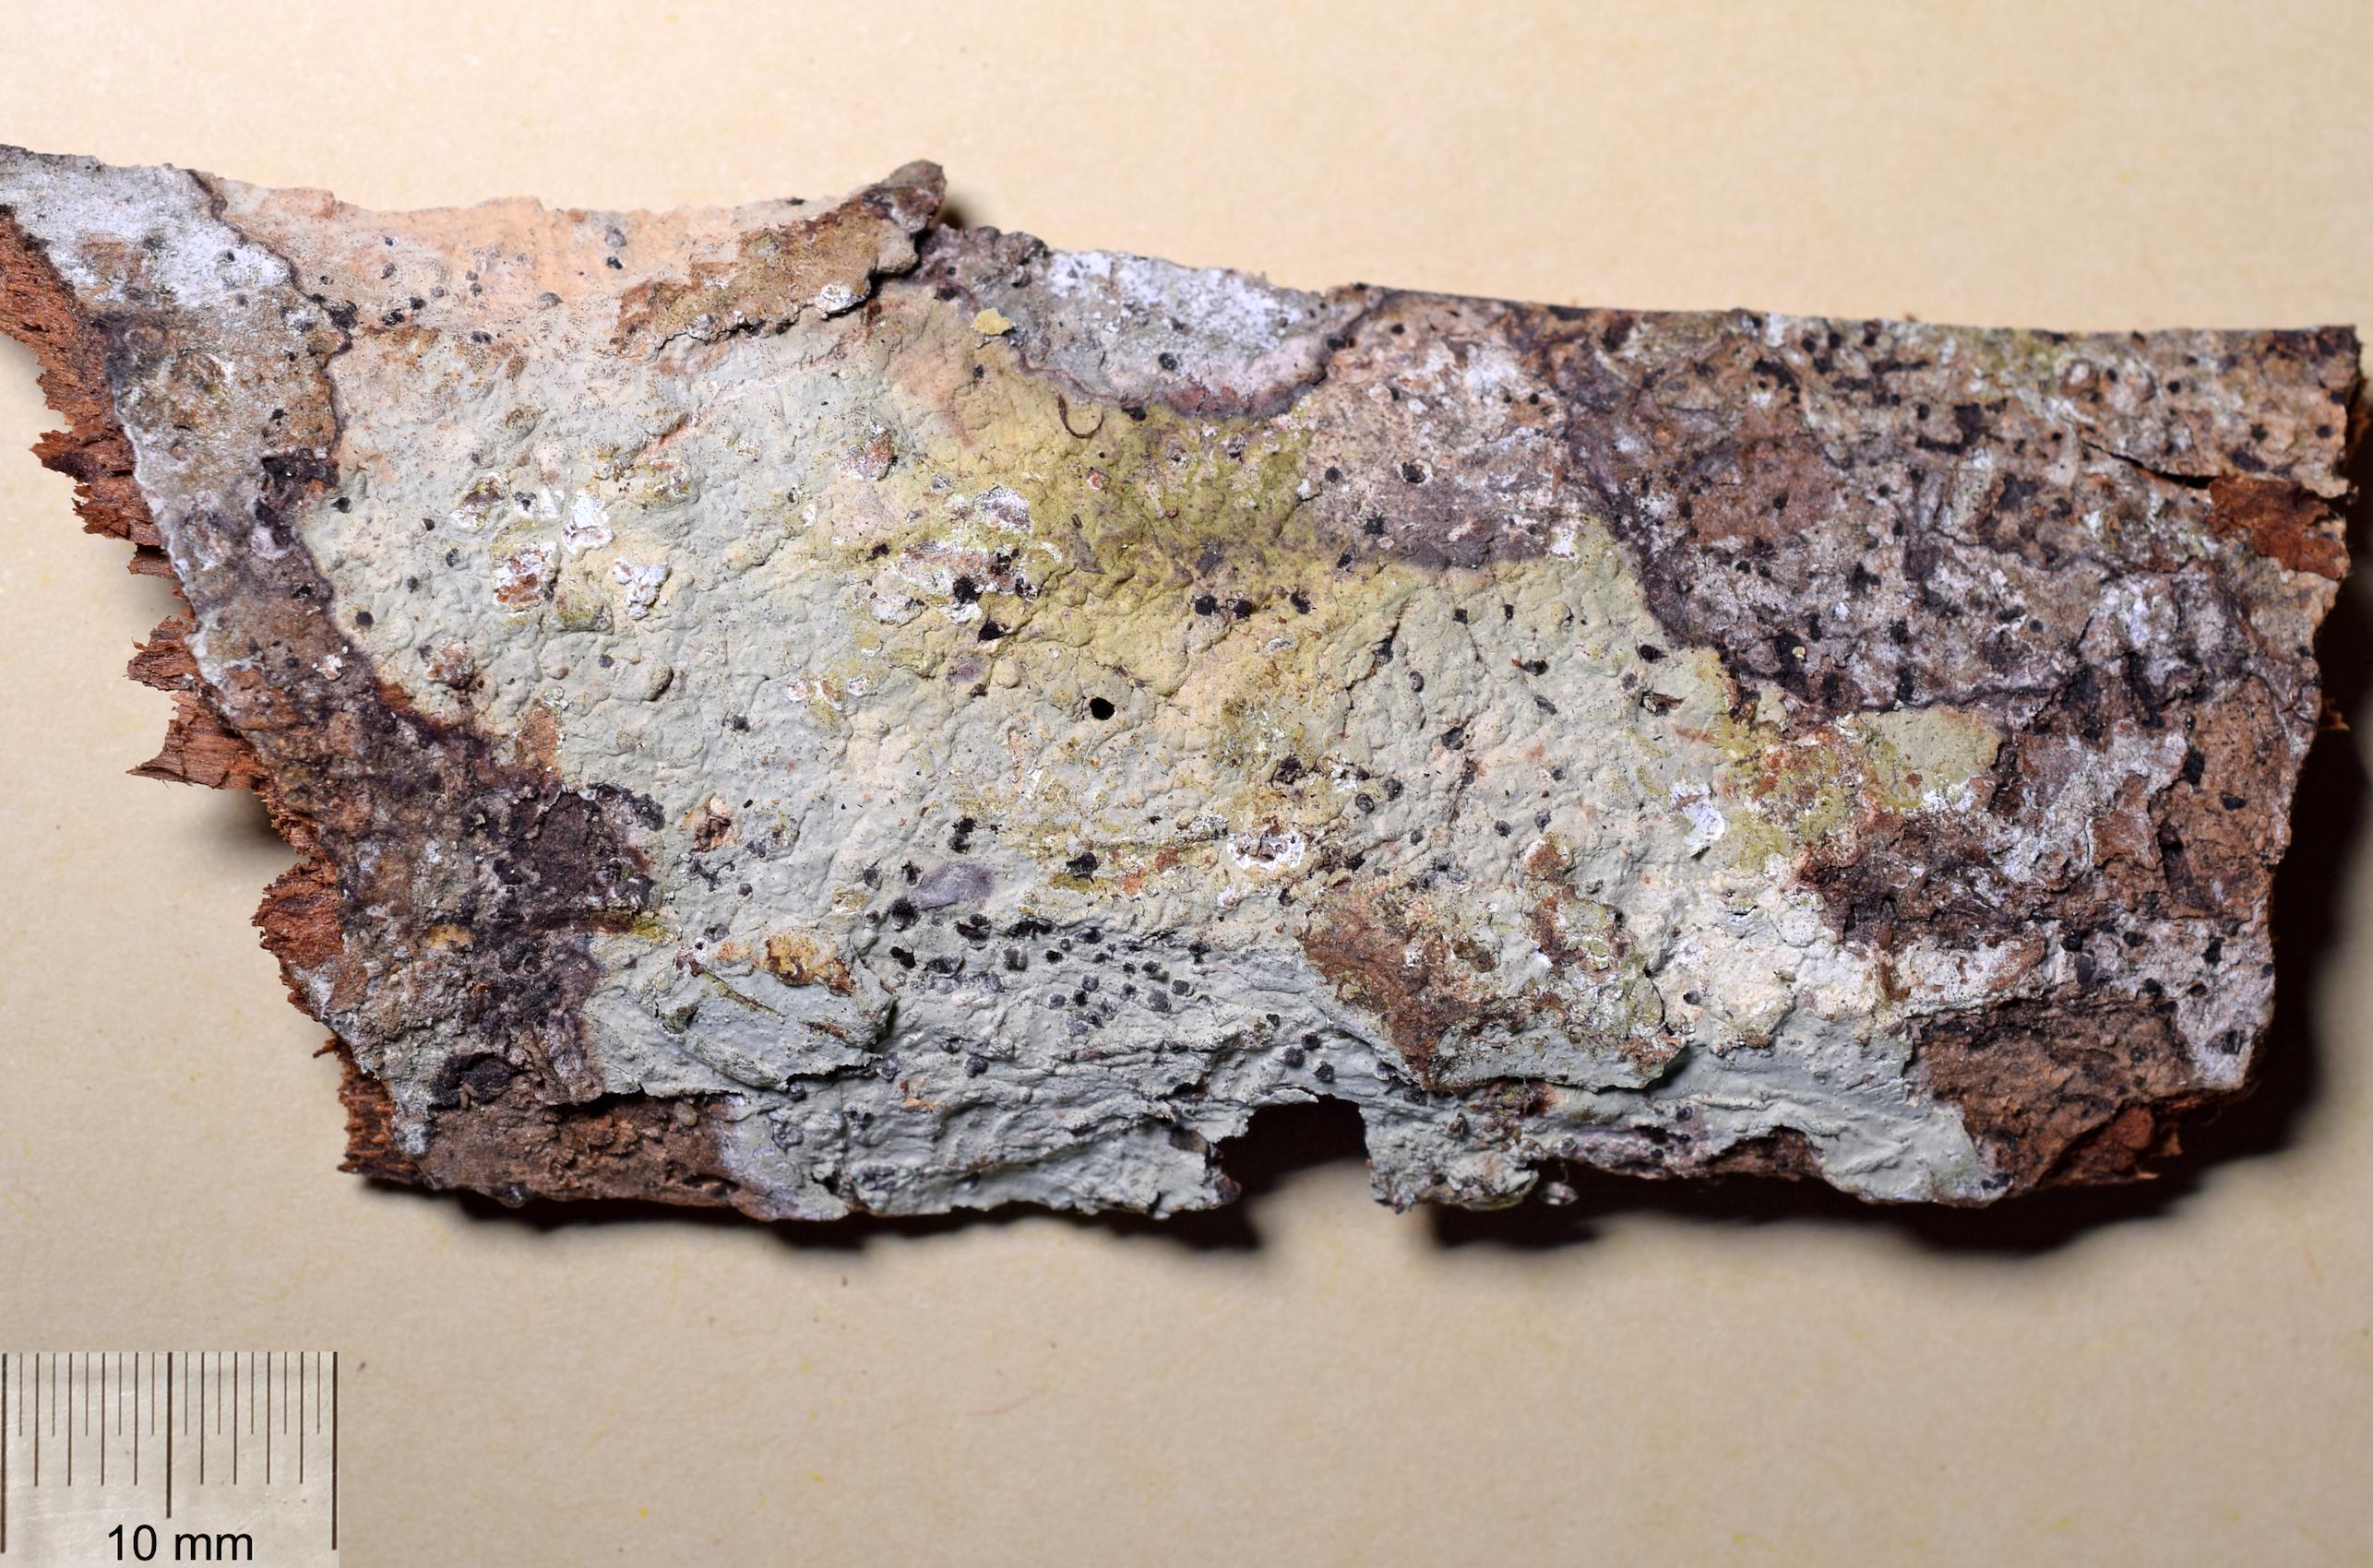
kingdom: Fungi
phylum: Ascomycota
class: Arthoniomycetes
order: Arthoniales
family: Arthoniaceae
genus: Cryptothecia
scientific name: Cryptothecia
